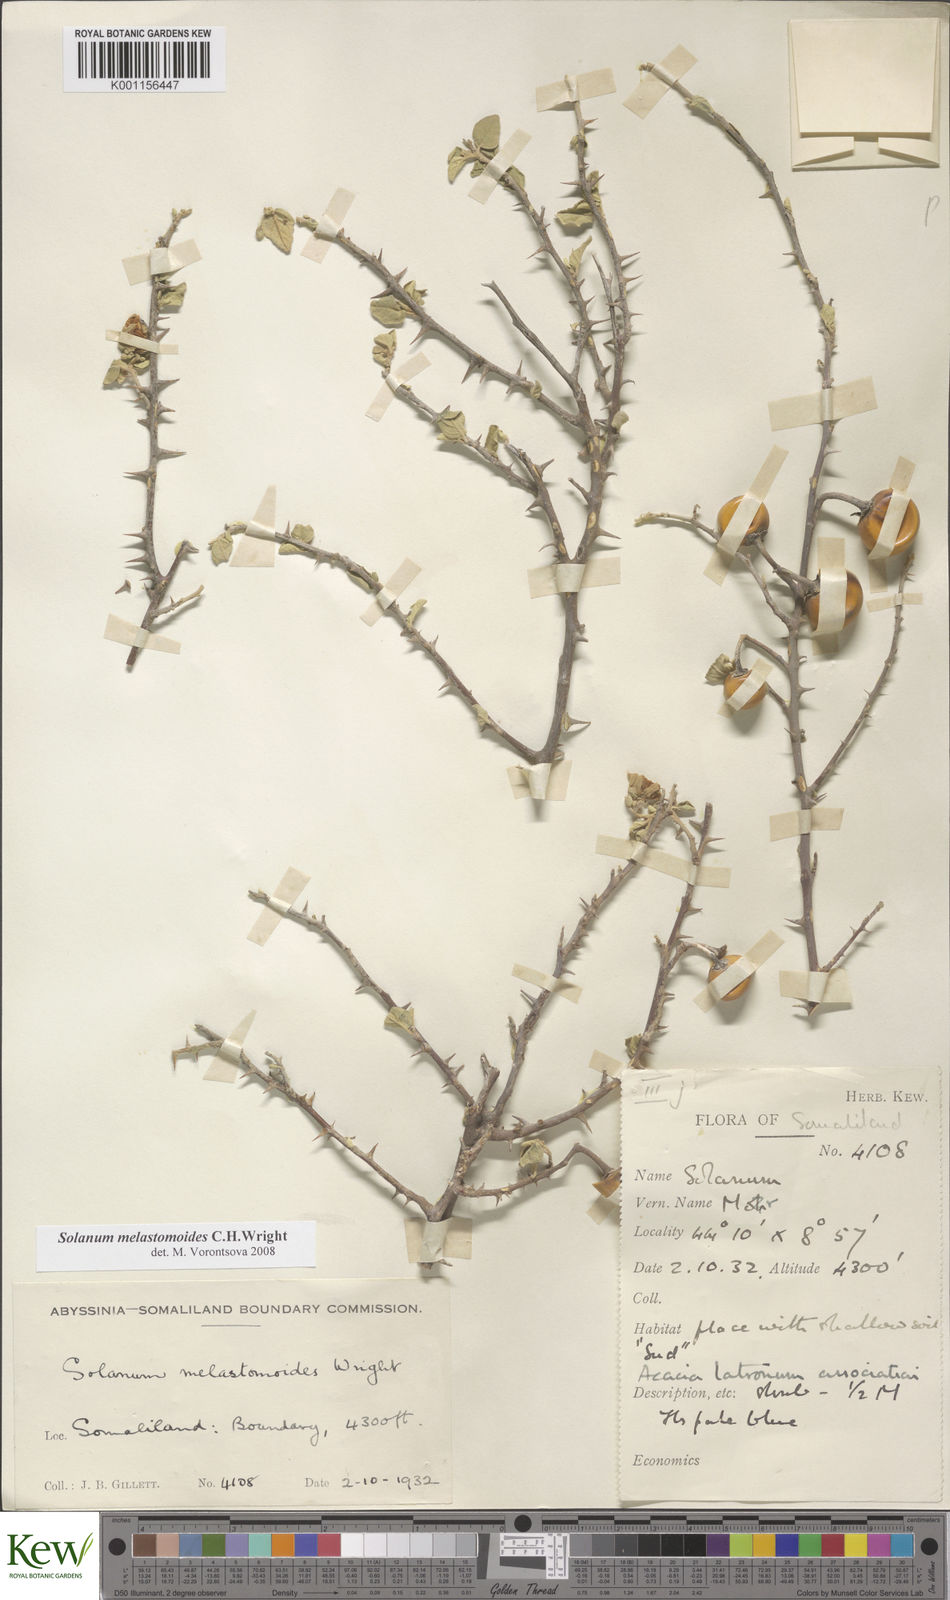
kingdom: Plantae
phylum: Tracheophyta
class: Magnoliopsida
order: Solanales
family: Solanaceae
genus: Solanum
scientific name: Solanum melastomoides
